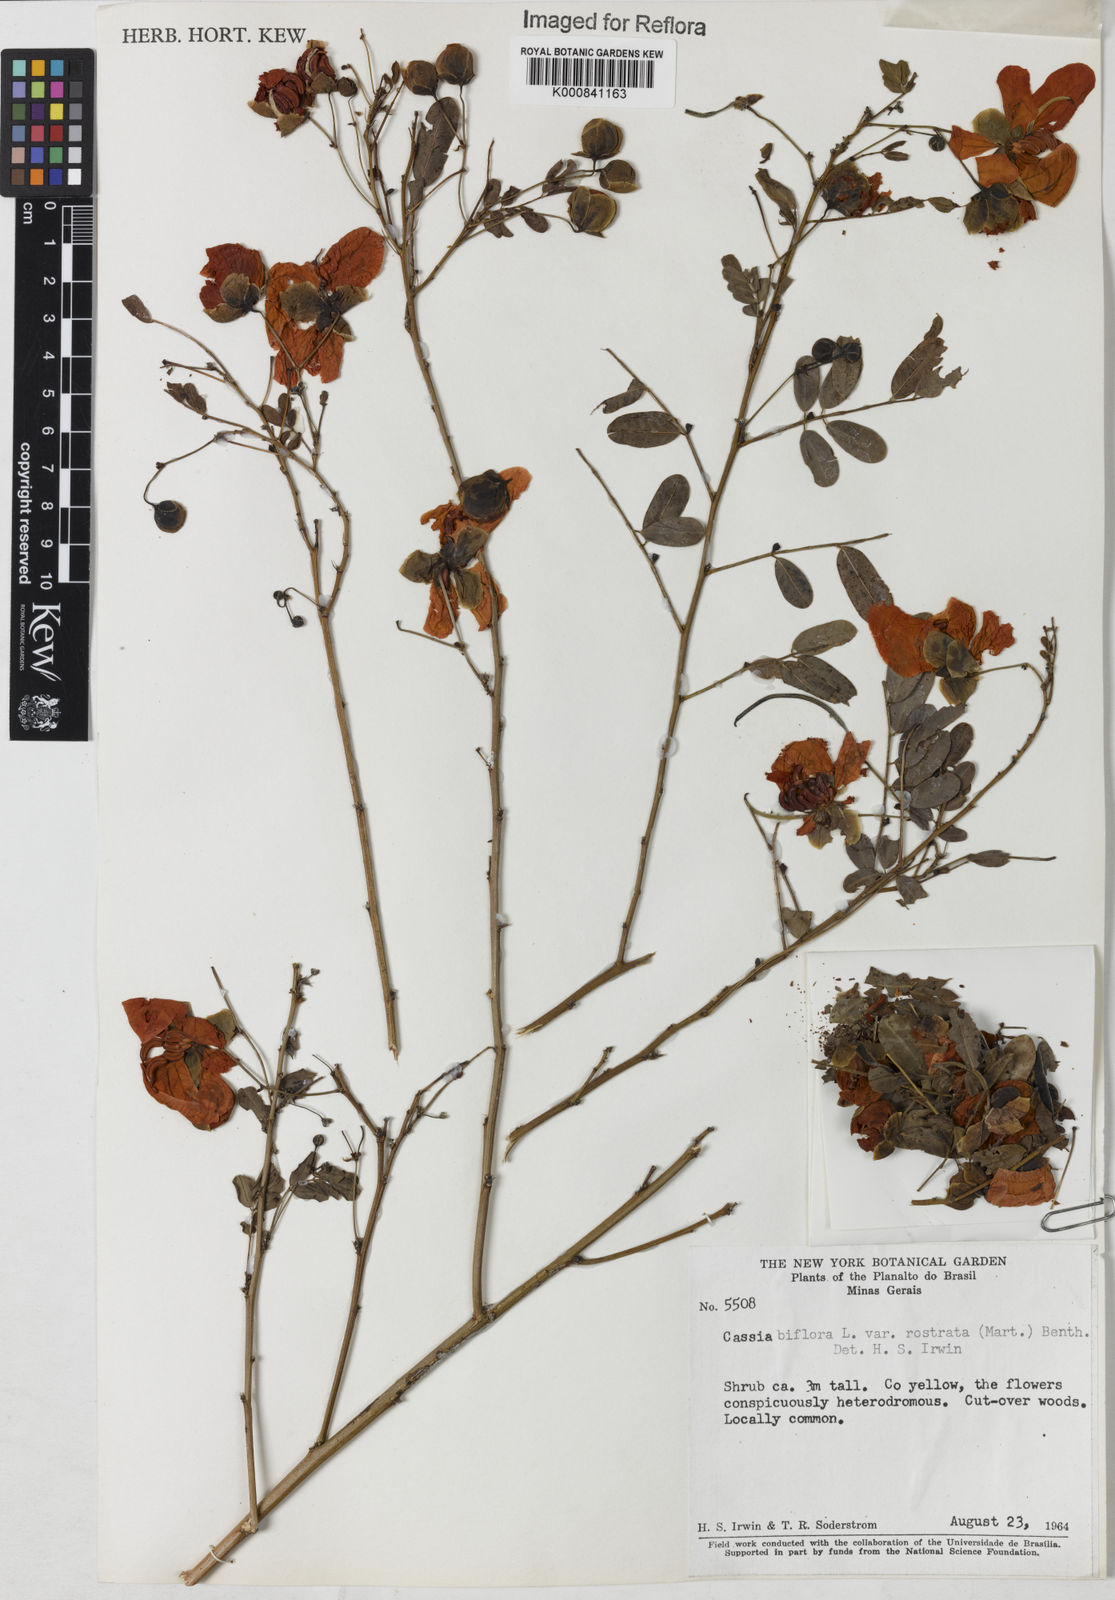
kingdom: Plantae
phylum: Tracheophyta
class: Magnoliopsida
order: Fabales
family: Fabaceae
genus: Senna
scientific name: Senna rostrata
